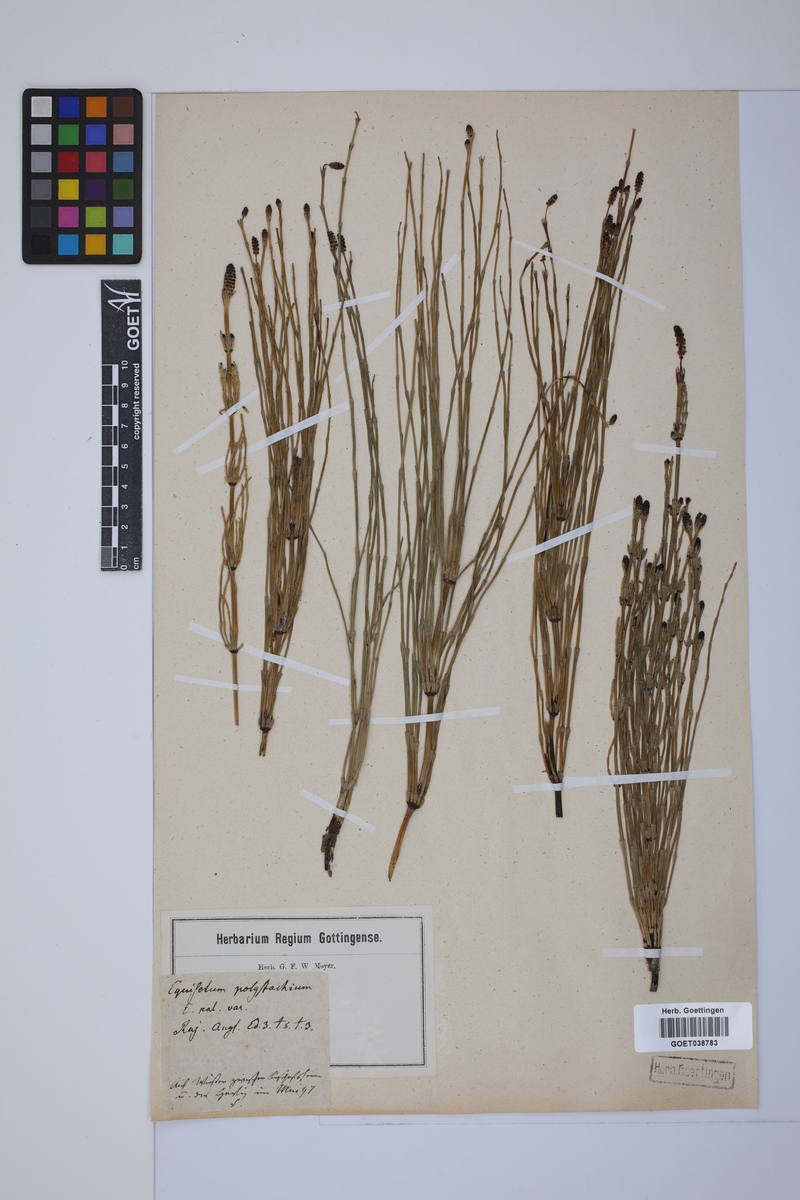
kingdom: Plantae
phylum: Tracheophyta
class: Polypodiopsida
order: Equisetales
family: Equisetaceae
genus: Equisetum
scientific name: Equisetum palustre
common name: Marsh horsetail
